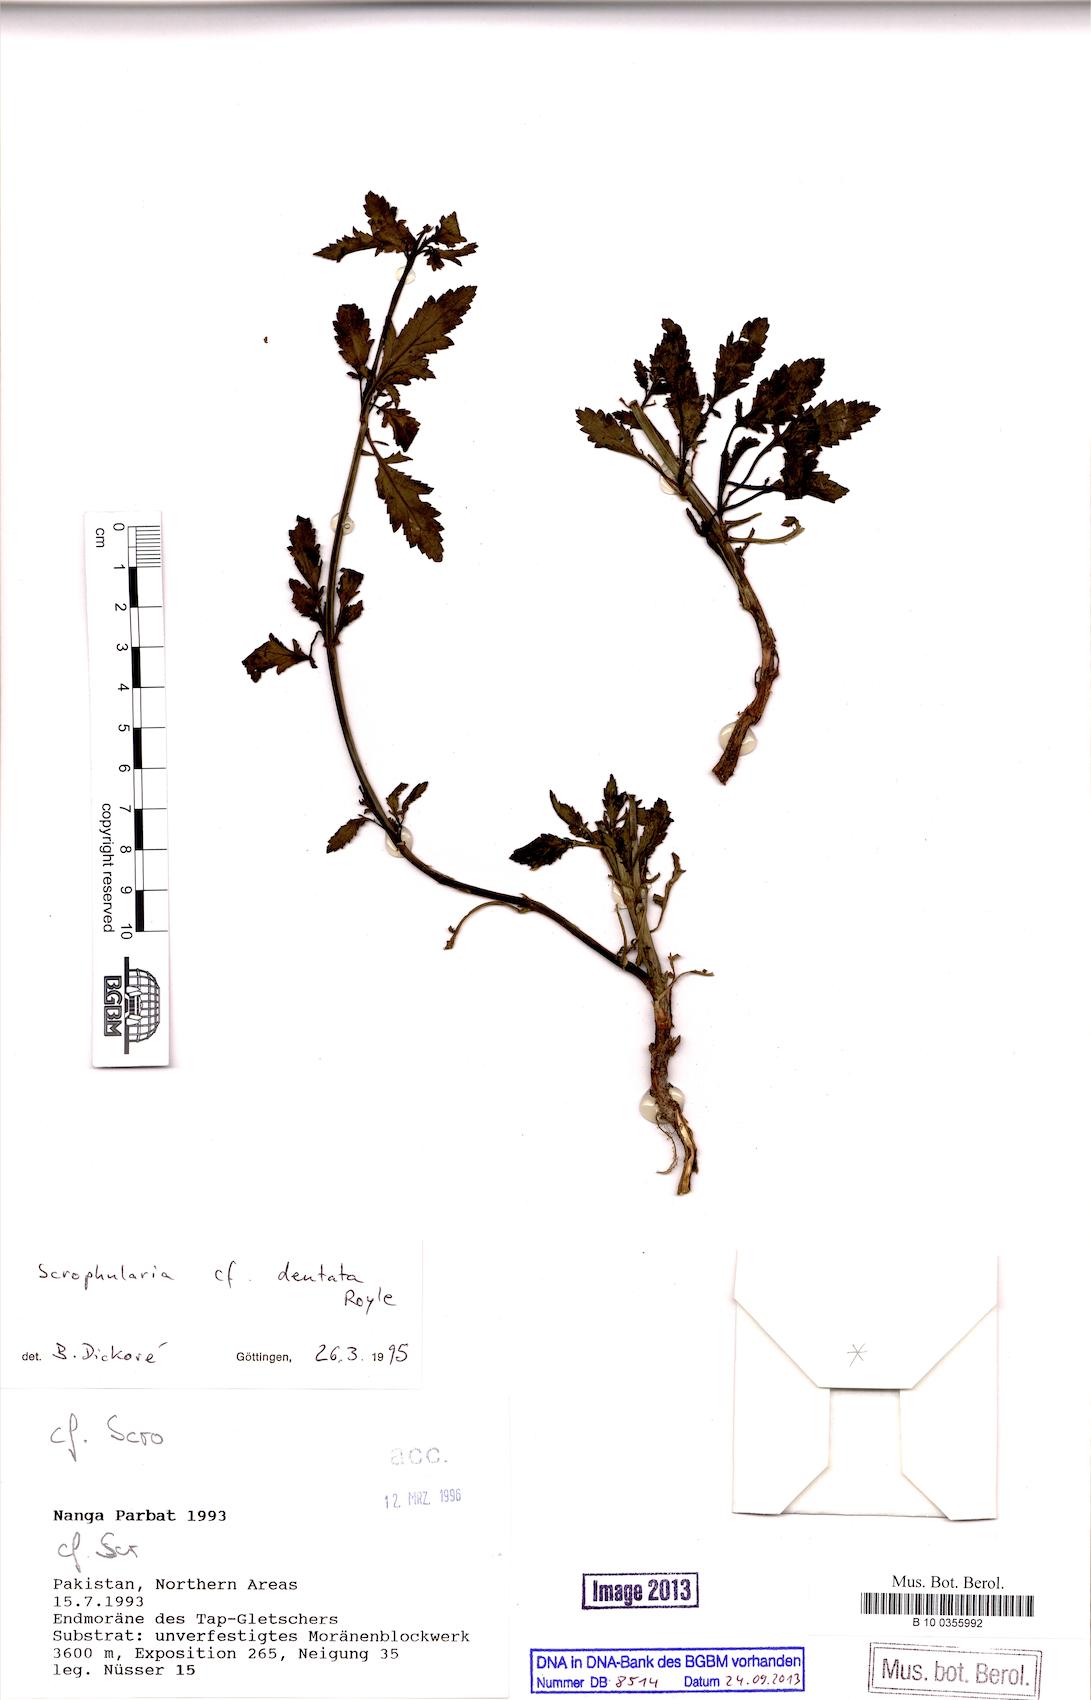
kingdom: Plantae
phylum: Tracheophyta
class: Magnoliopsida
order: Lamiales
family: Scrophulariaceae
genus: Scrophularia
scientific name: Scrophularia dentata
